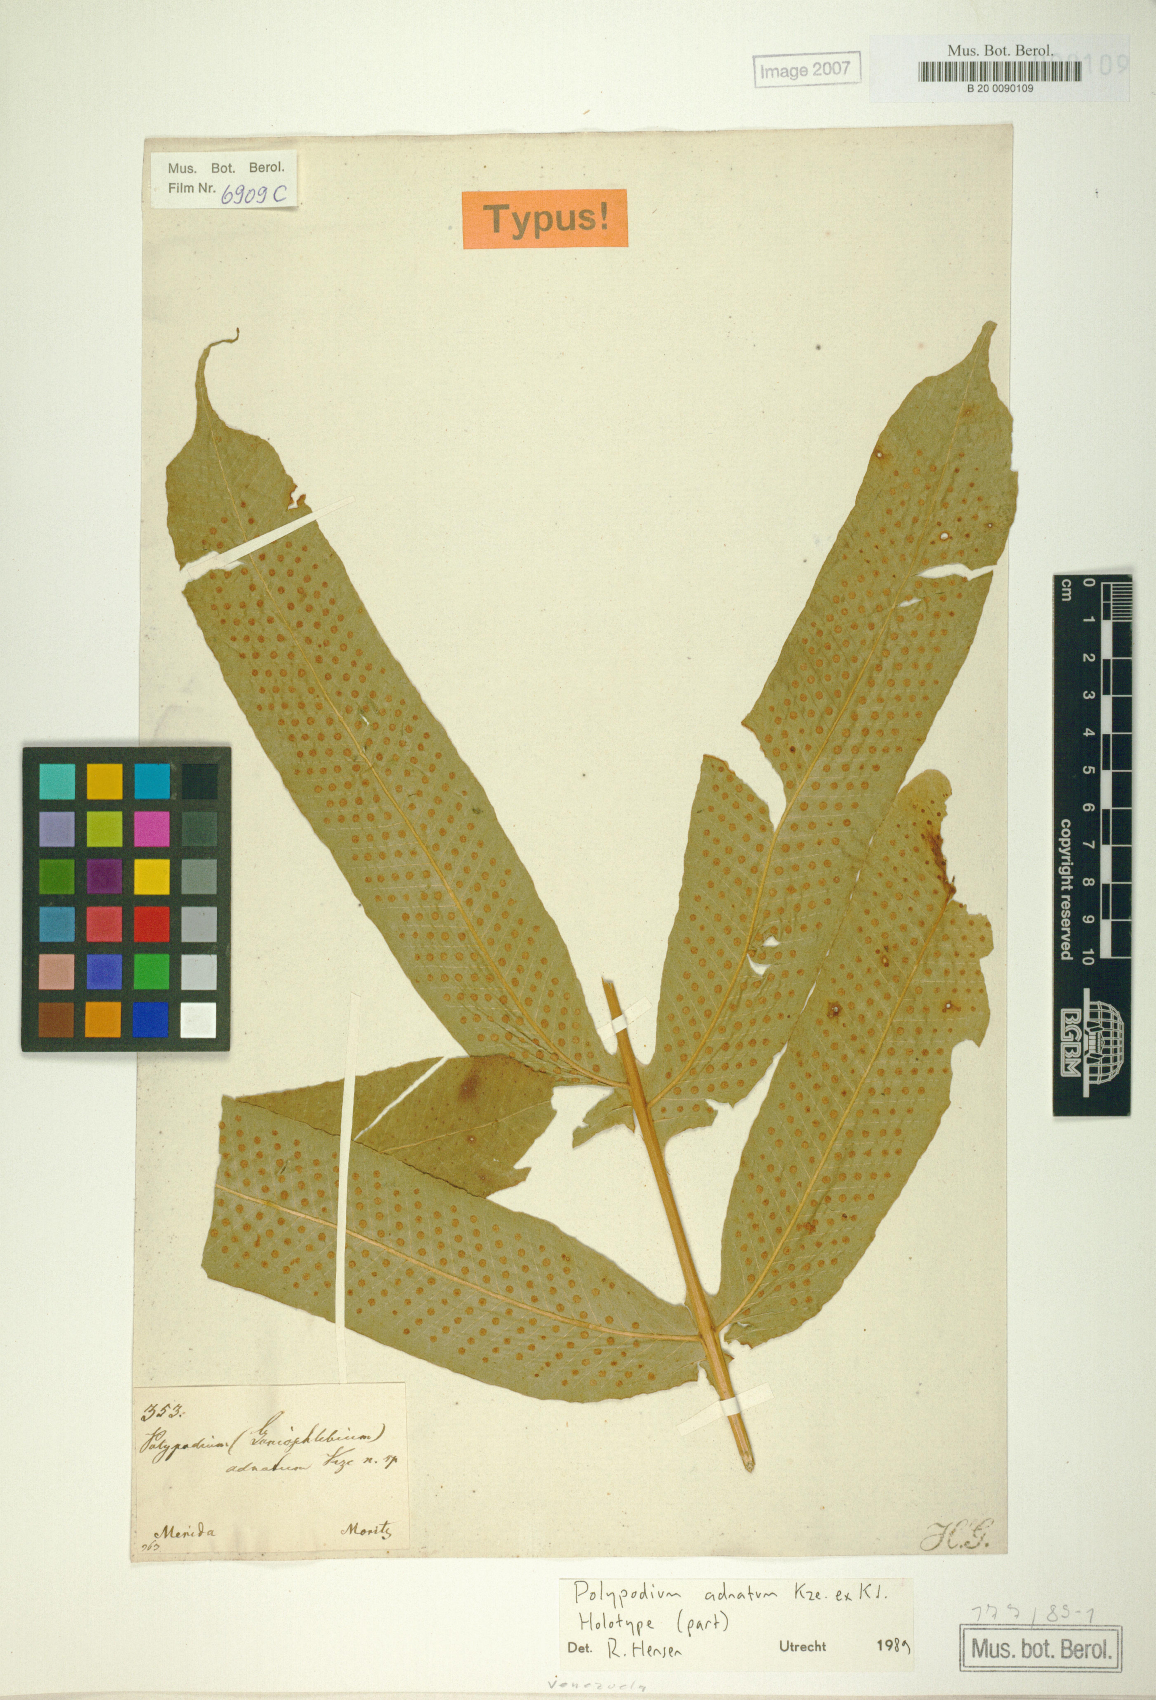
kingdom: Plantae
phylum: Tracheophyta
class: Polypodiopsida
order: Polypodiales
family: Polypodiaceae
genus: Serpocaulon
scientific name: Serpocaulon adnatum
